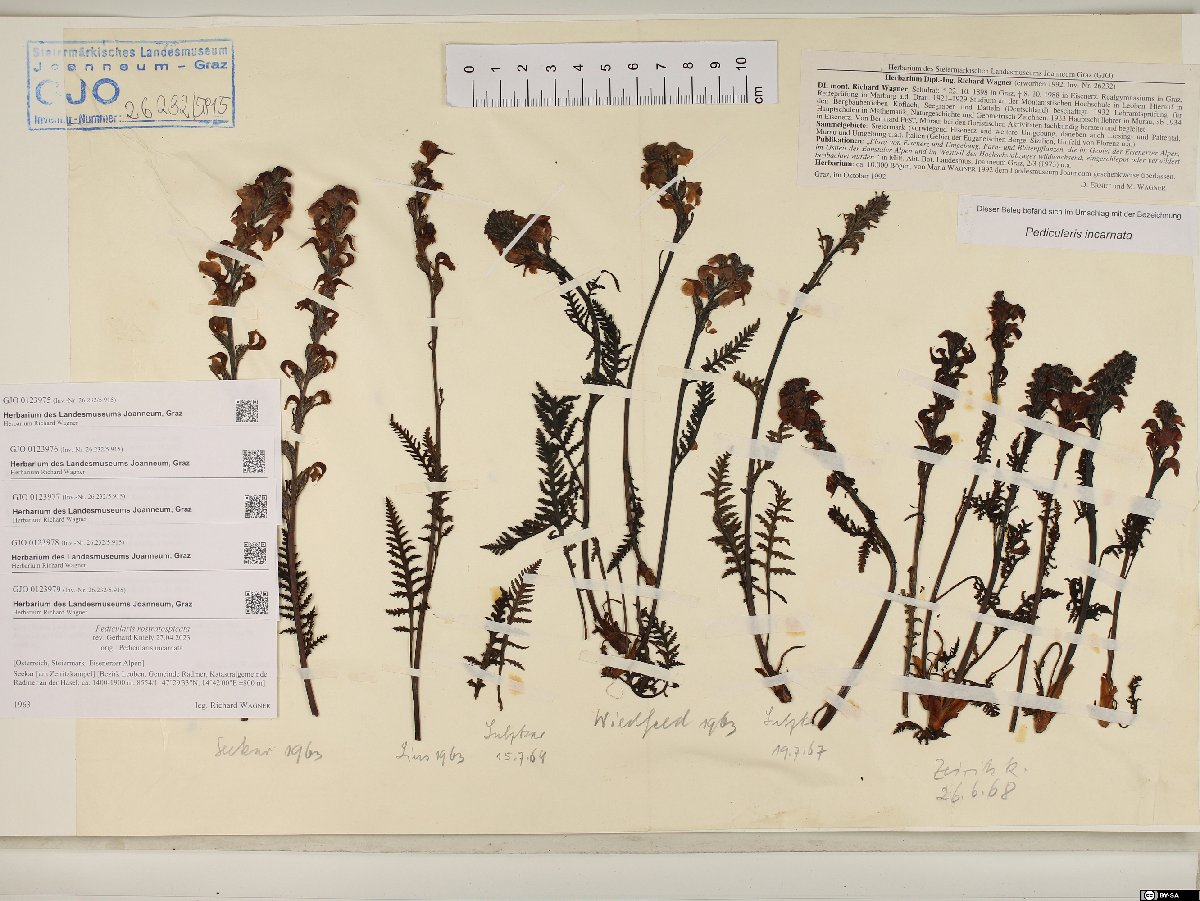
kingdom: Plantae
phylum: Tracheophyta
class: Magnoliopsida
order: Lamiales
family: Orobanchaceae
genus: Pedicularis
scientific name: Pedicularis rostratospicata
